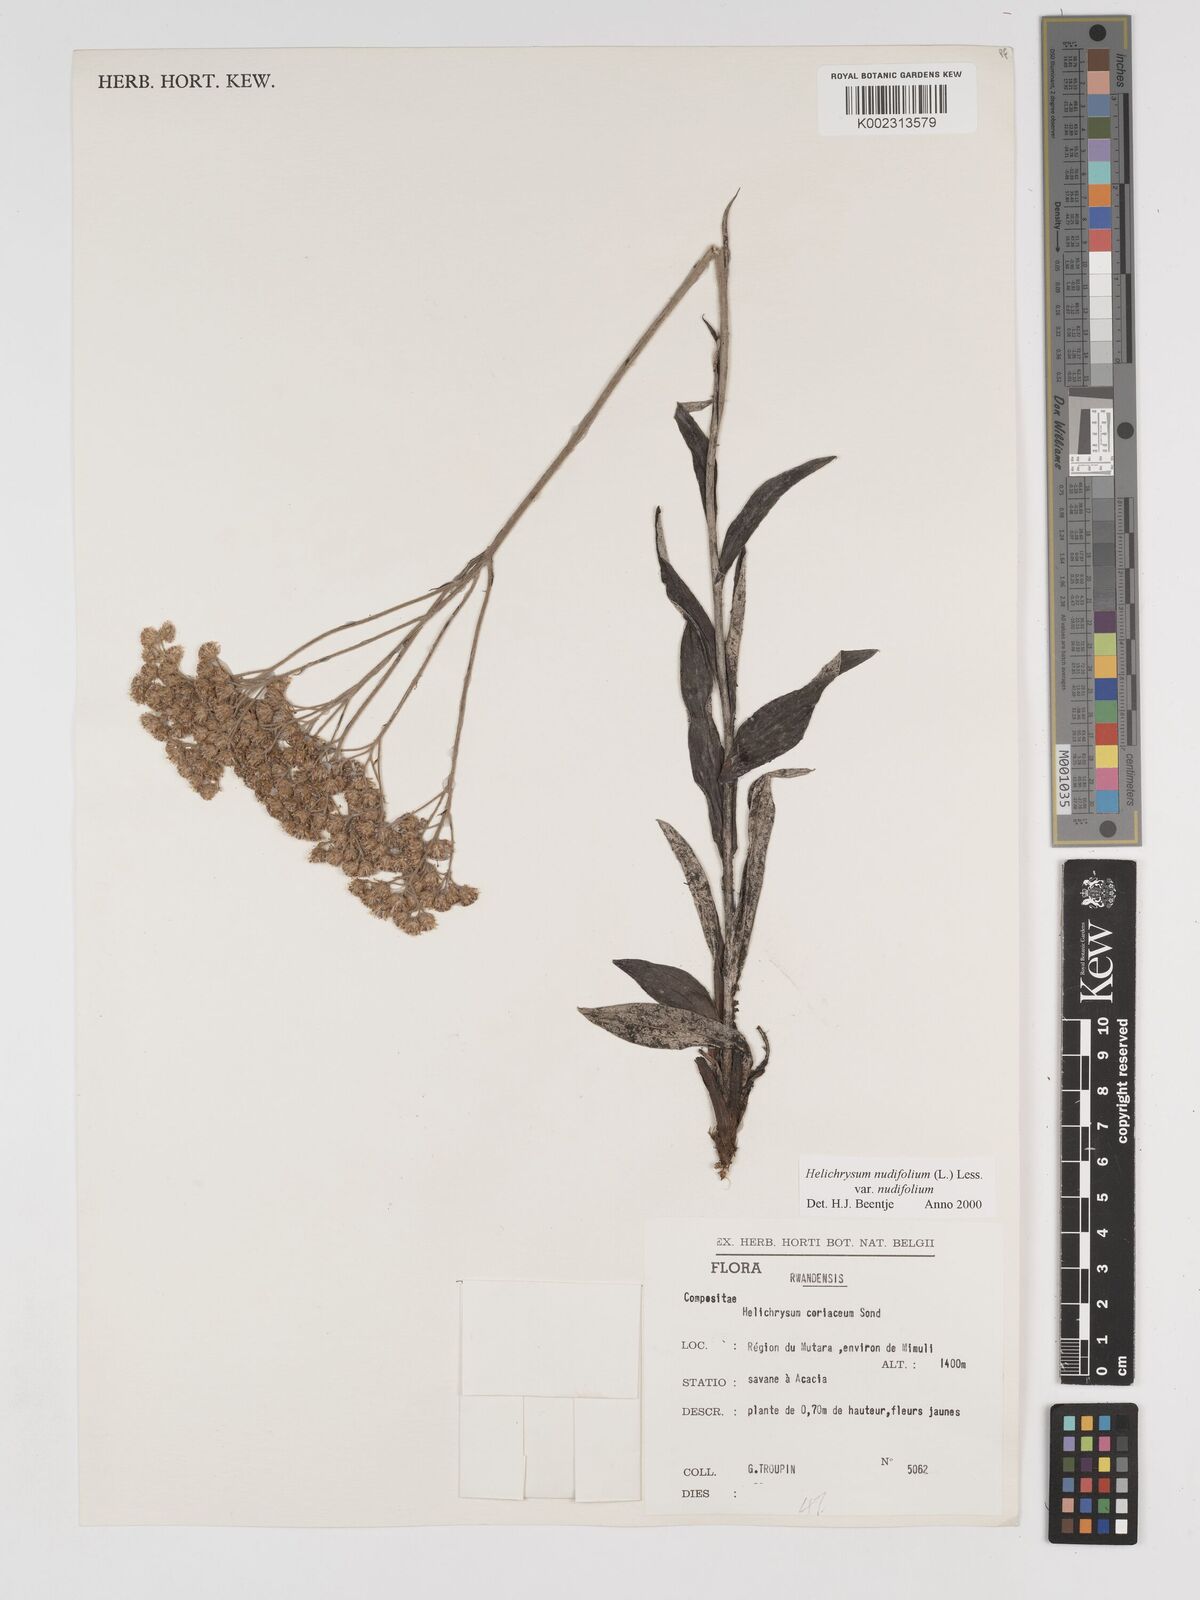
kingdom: Plantae
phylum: Tracheophyta
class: Magnoliopsida
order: Asterales
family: Asteraceae
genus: Helichrysum
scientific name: Helichrysum nudifolium
